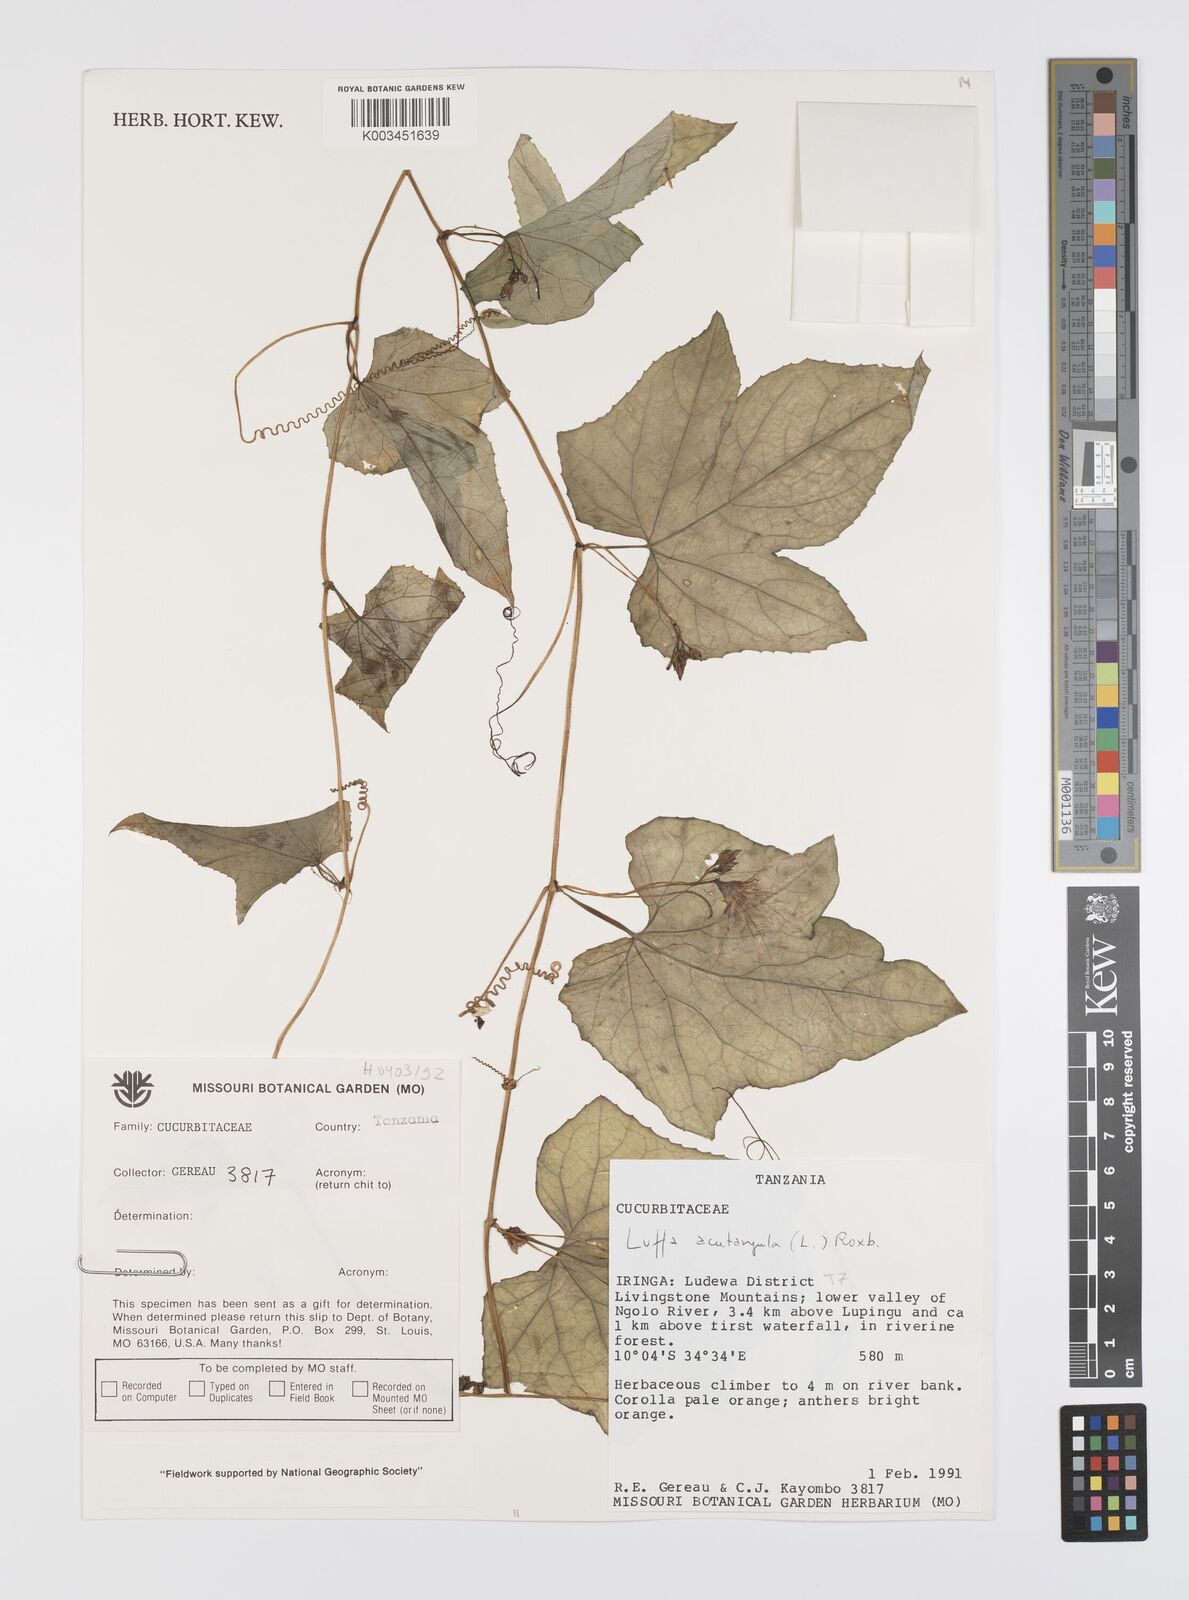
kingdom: Plantae
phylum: Tracheophyta
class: Magnoliopsida
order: Cucurbitales
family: Cucurbitaceae
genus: Luffa
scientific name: Luffa acutangula
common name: Sinkwa towelsponge
